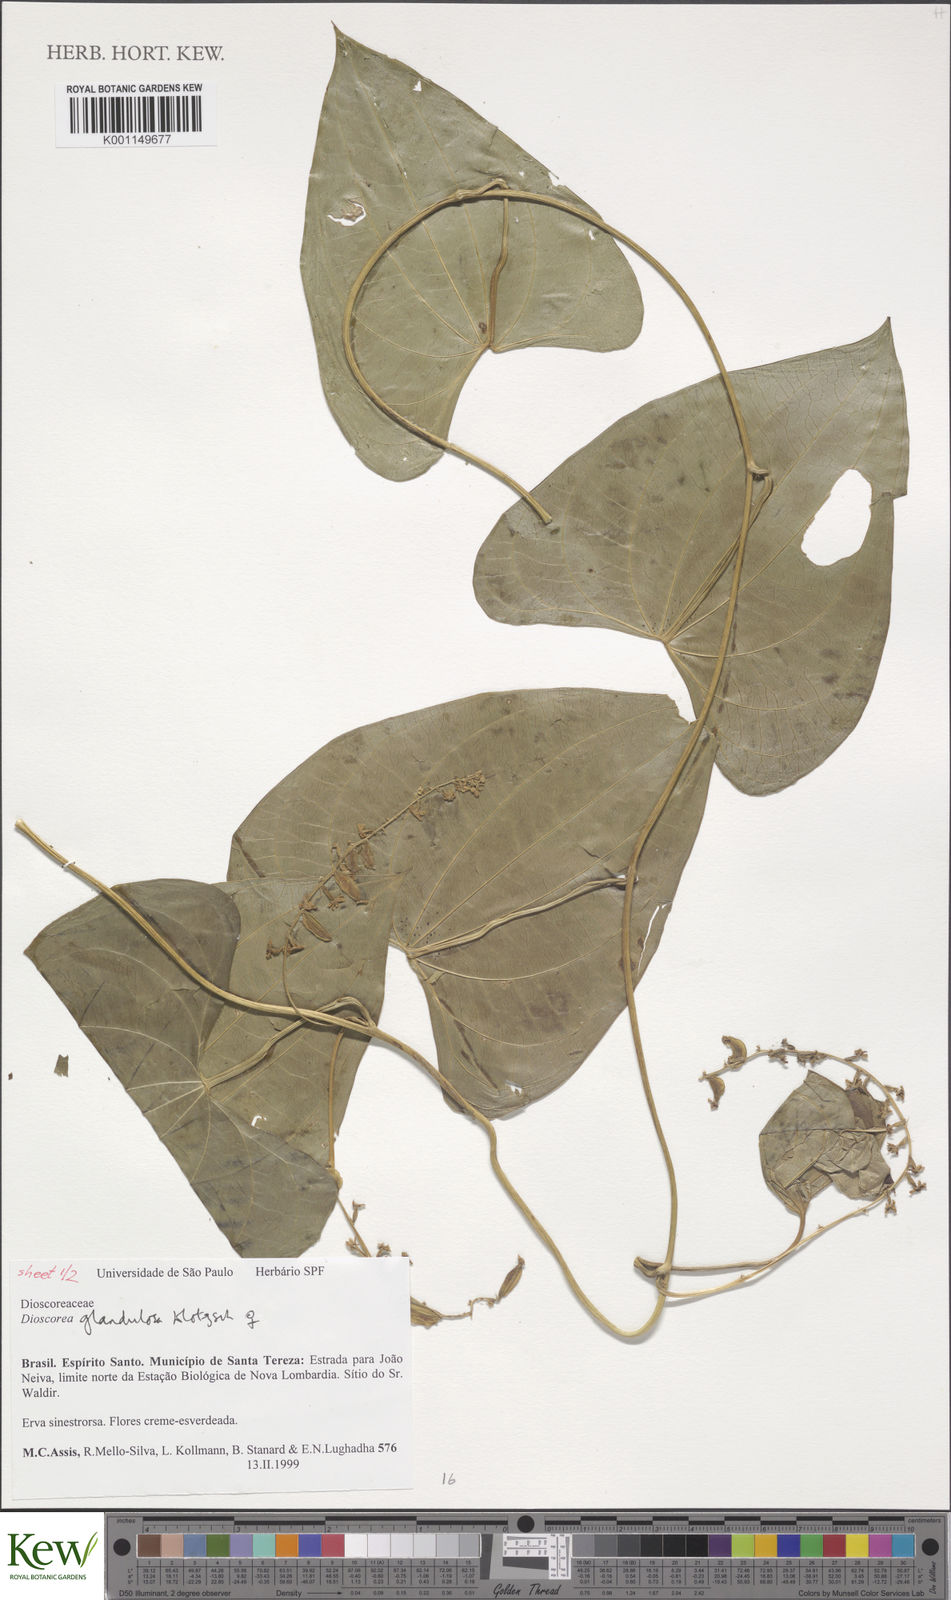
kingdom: Plantae
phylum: Tracheophyta
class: Liliopsida
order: Dioscoreales
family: Dioscoreaceae
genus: Dioscorea
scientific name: Dioscorea glandulosa
